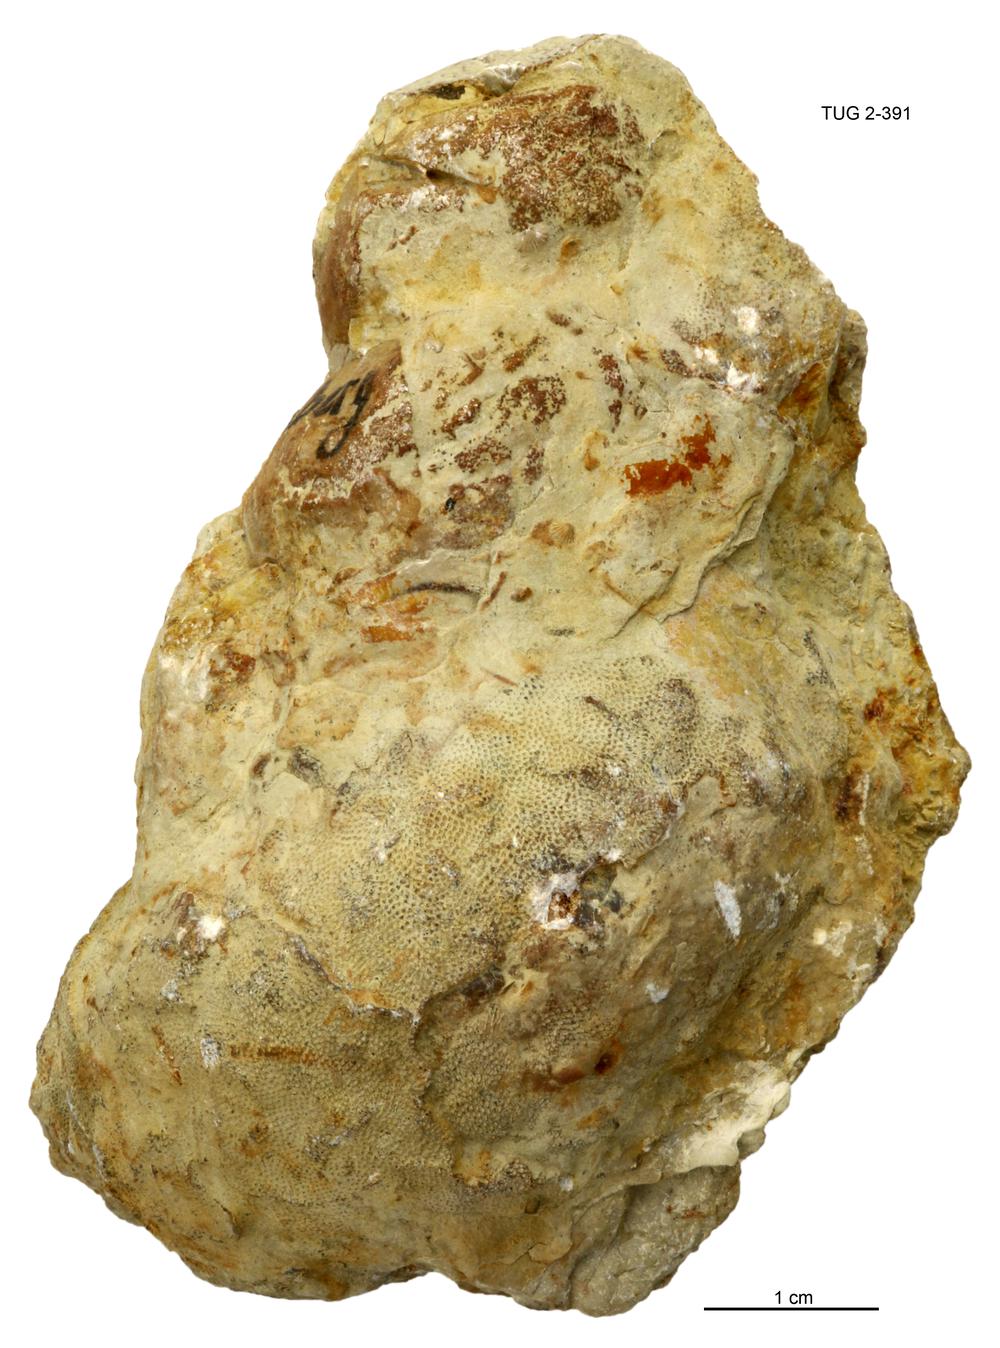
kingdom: Animalia
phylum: Mollusca
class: Gastropoda
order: Pleurotomariida
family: Murchisoniidae
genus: Murchisonia
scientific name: Murchisonia insignis
